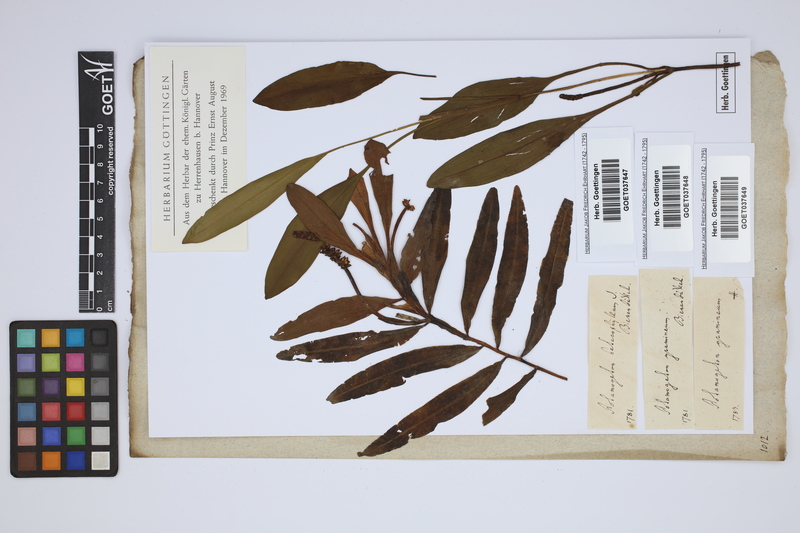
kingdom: Plantae
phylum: Tracheophyta
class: Liliopsida
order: Alismatales
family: Potamogetonaceae
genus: Potamogeton
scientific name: Potamogeton gramineus
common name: Various-leaved pondweed
